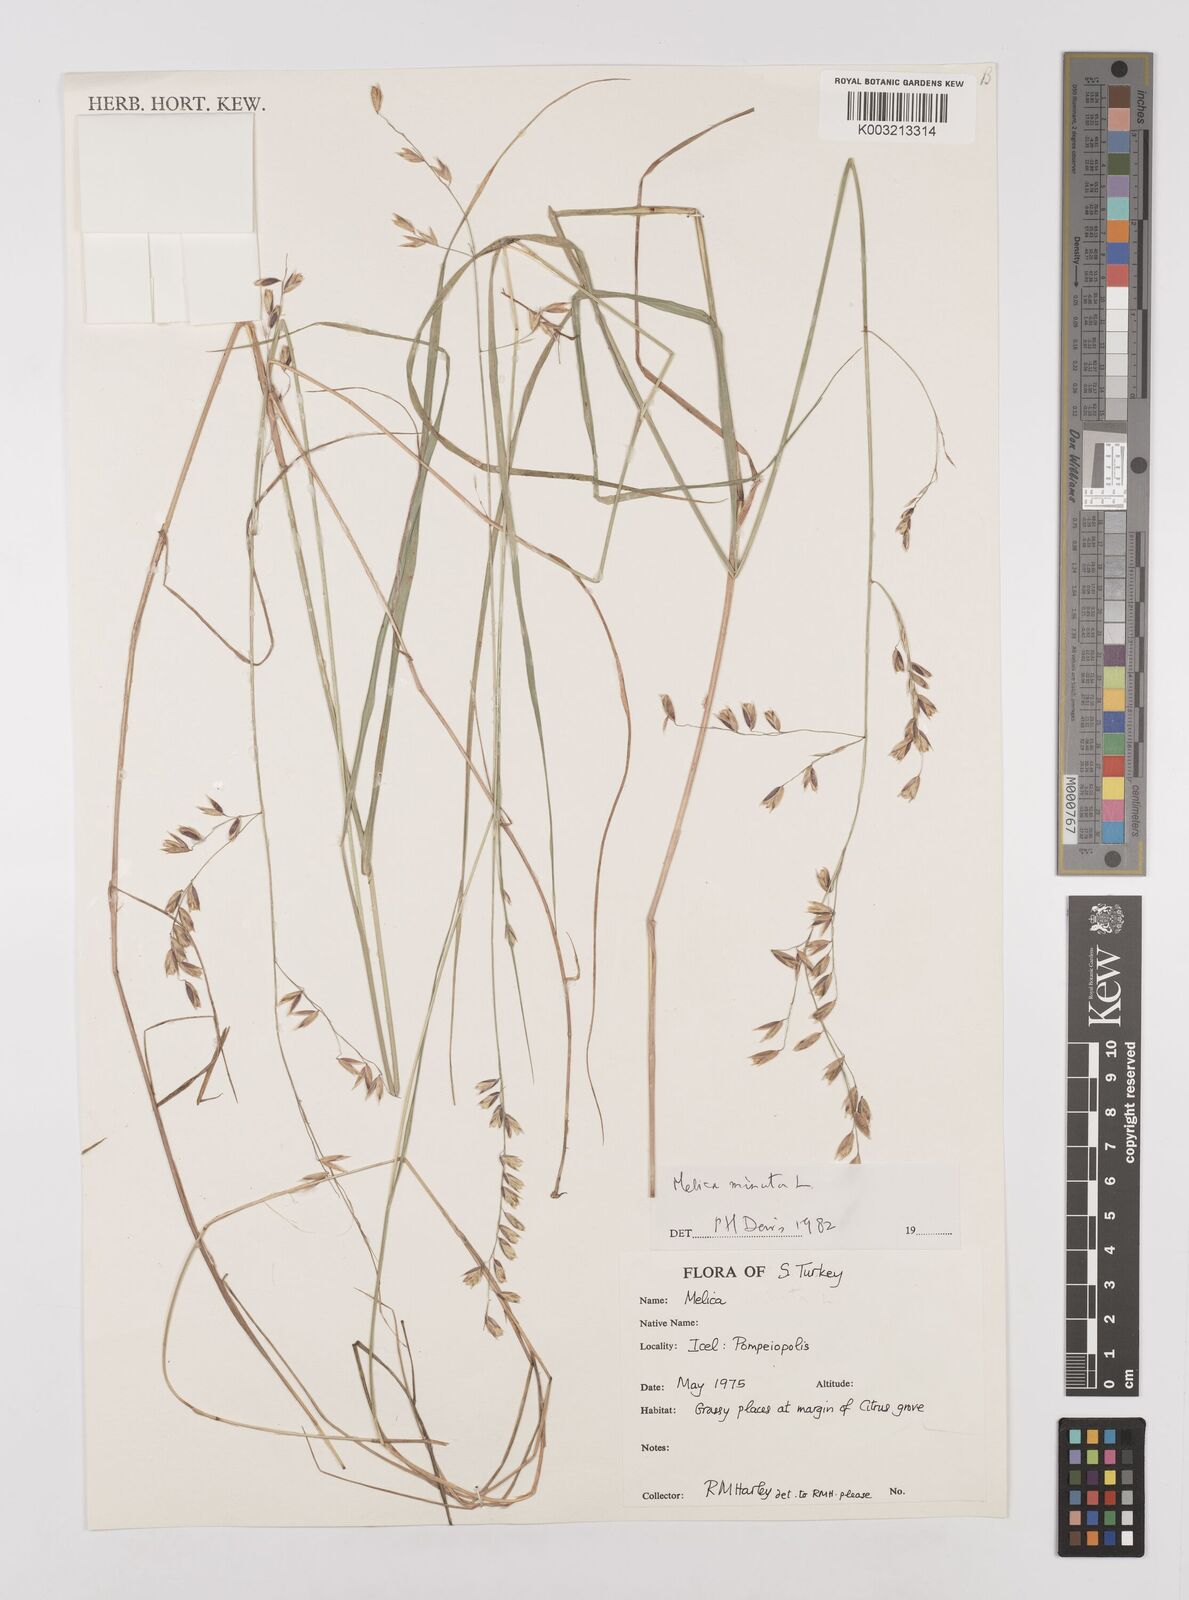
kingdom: Plantae
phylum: Tracheophyta
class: Liliopsida
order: Poales
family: Poaceae
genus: Melica
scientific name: Melica minuta
